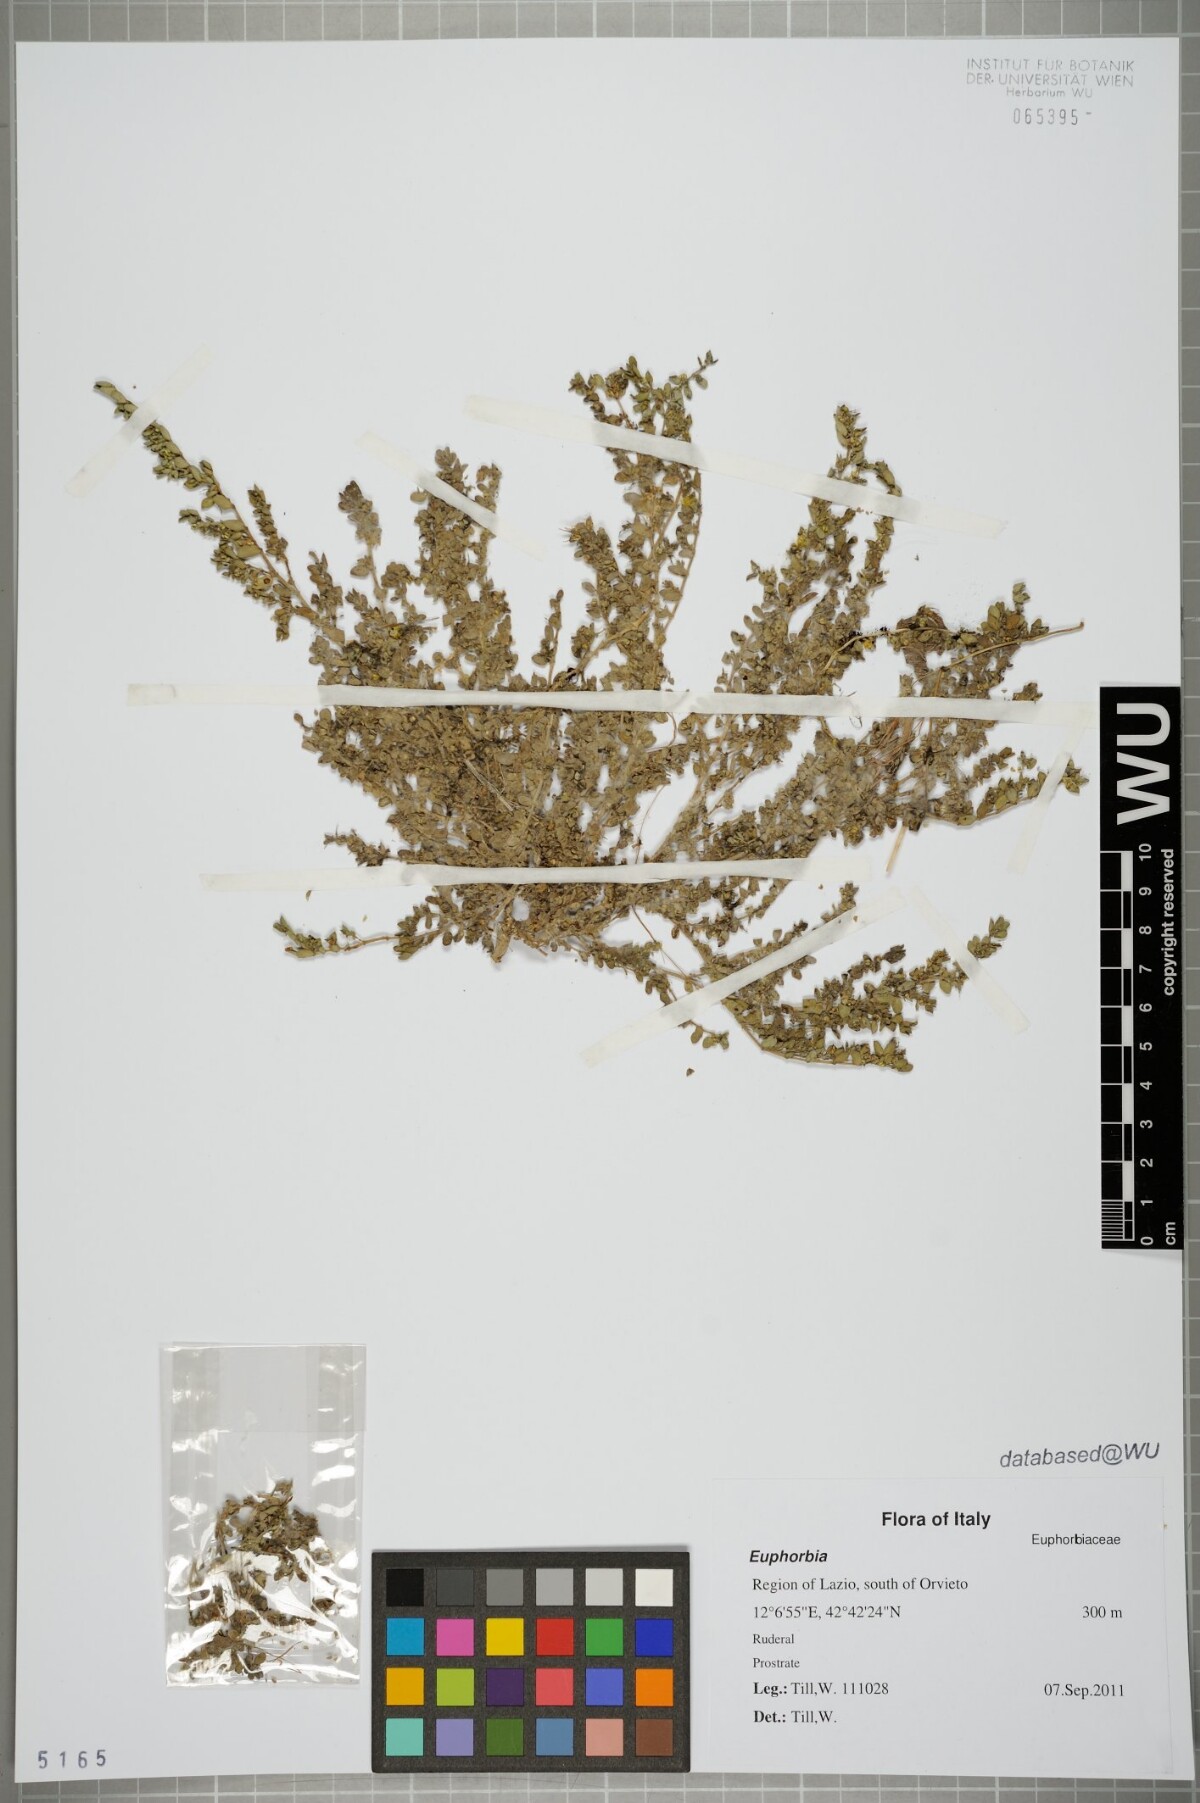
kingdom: Plantae
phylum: Tracheophyta
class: Magnoliopsida
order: Malpighiales
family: Euphorbiaceae
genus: Euphorbia
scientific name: Euphorbia
